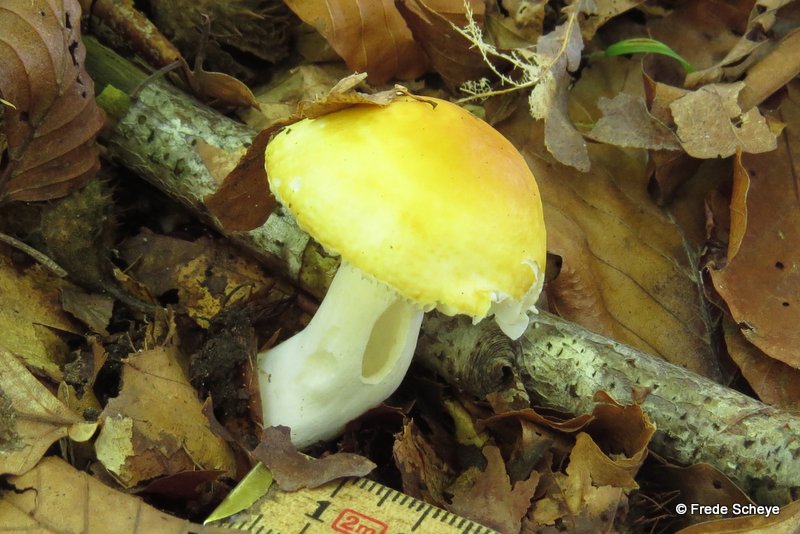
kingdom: Fungi
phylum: Basidiomycota
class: Agaricomycetes
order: Russulales
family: Russulaceae
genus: Russula
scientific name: Russula ochroleuca
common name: okkergul skørhat
